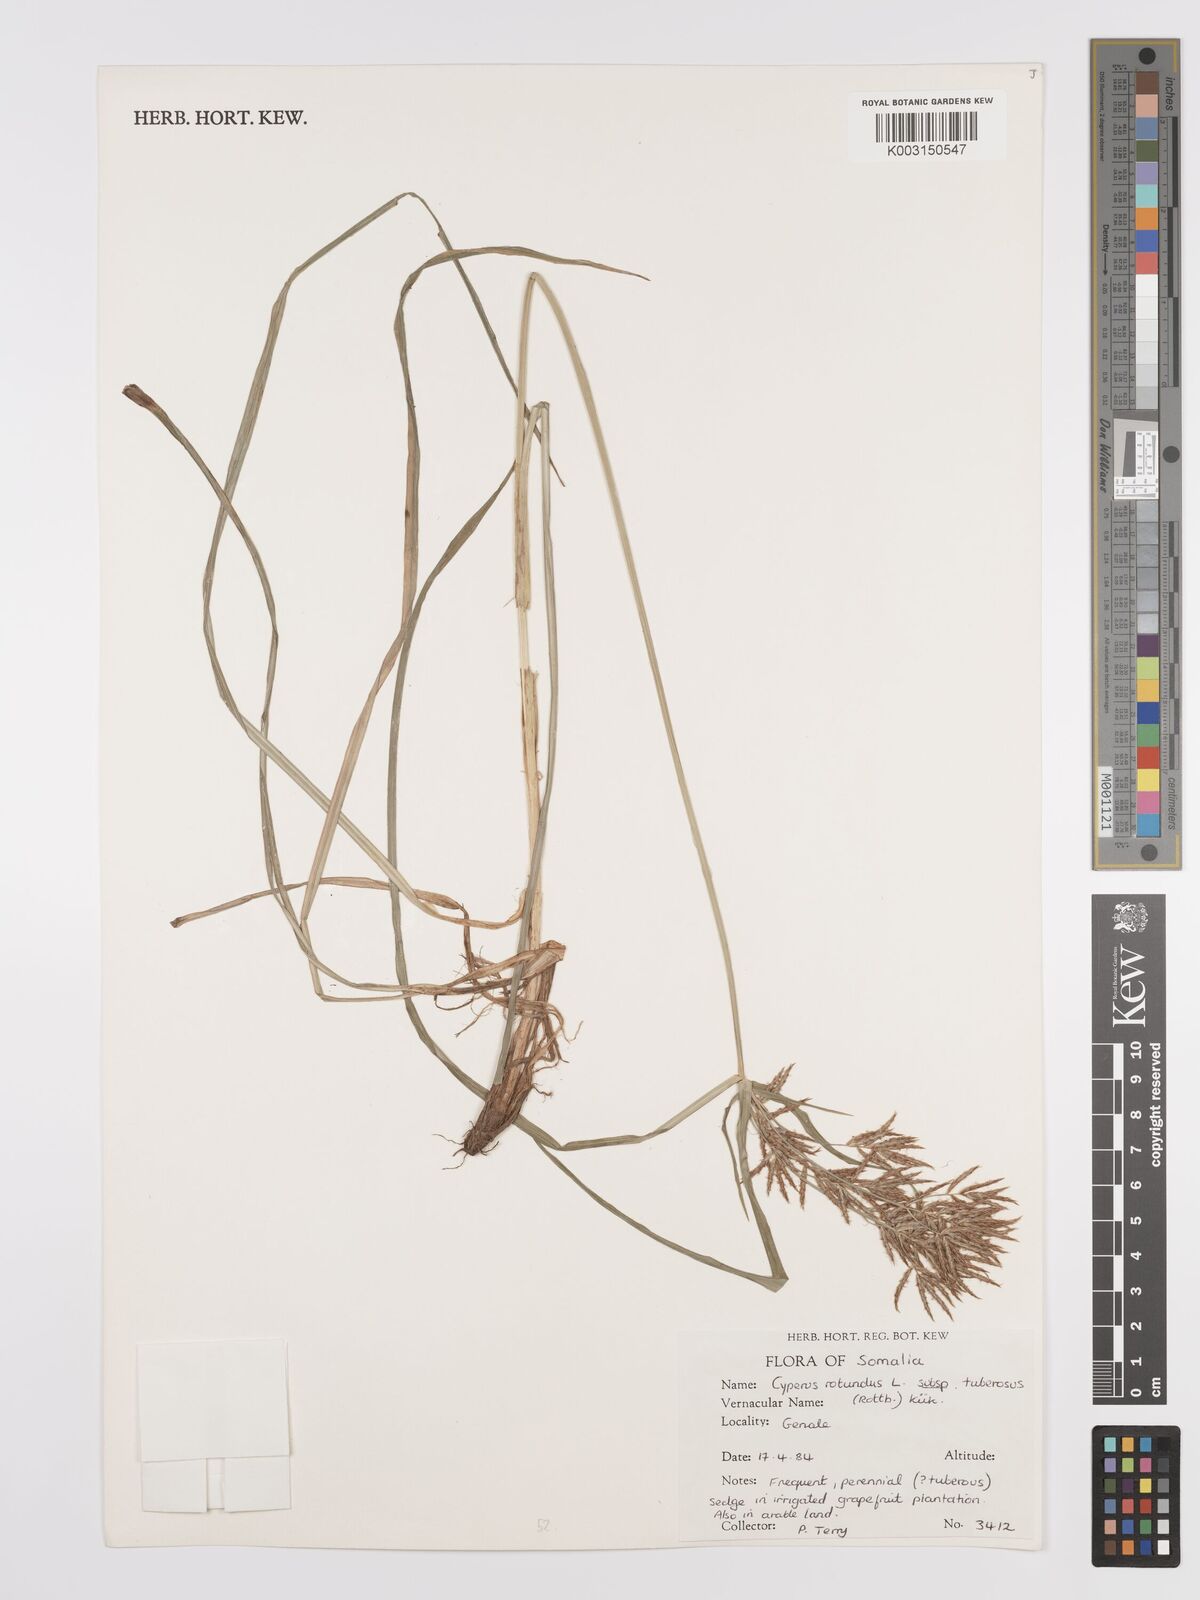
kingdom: Plantae
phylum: Tracheophyta
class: Liliopsida
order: Poales
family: Cyperaceae
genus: Cyperus
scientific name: Cyperus tuberosus
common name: Nut grass
